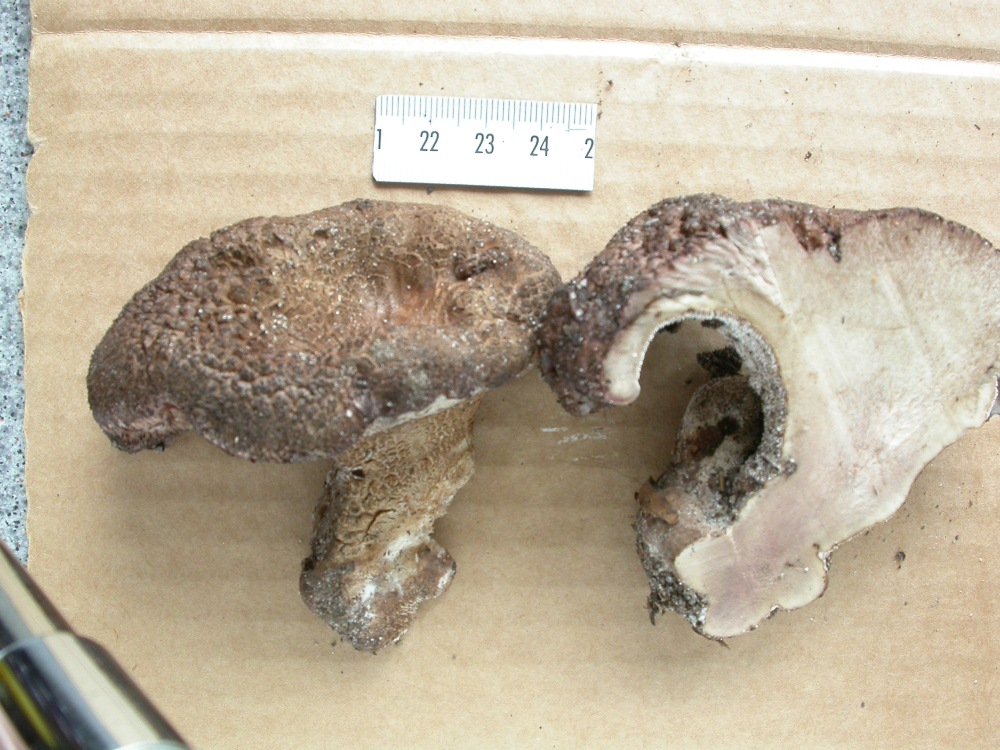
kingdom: Fungi
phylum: Basidiomycota
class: Agaricomycetes
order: Thelephorales
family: Bankeraceae
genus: Hydnellum
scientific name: Hydnellum lepidum
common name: skrænt-korkpigsvamp
